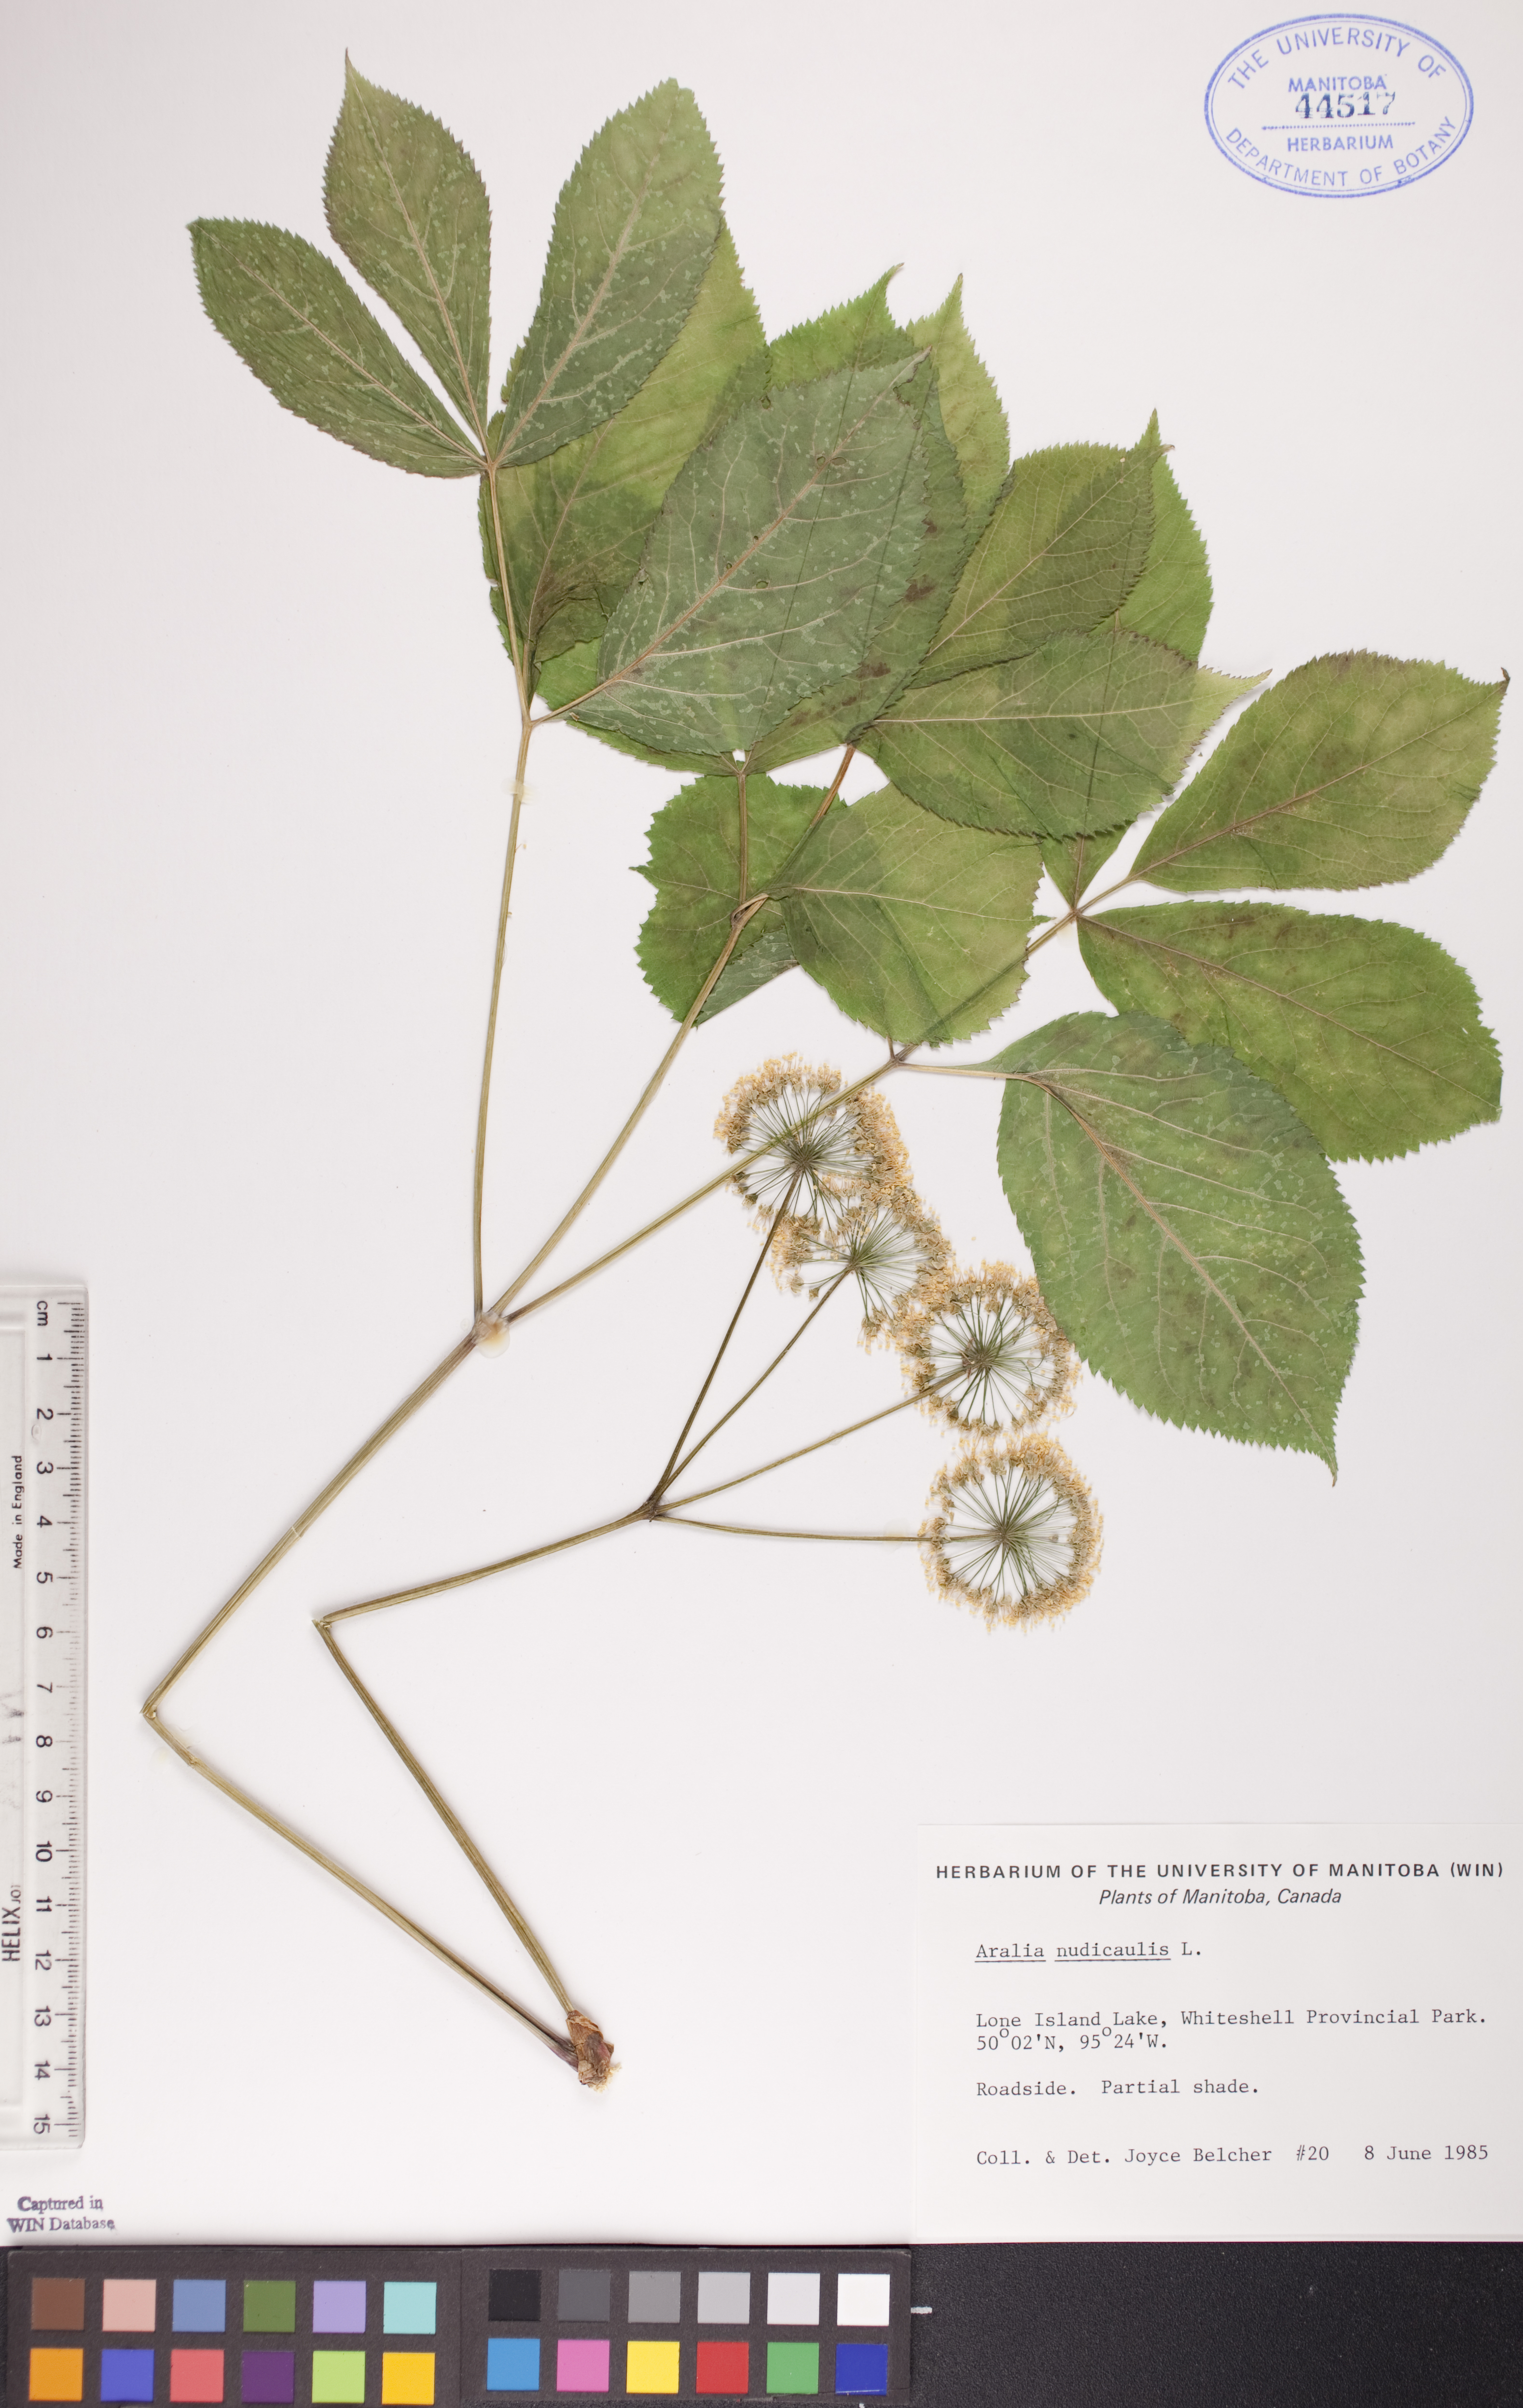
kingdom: Plantae
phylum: Tracheophyta
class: Magnoliopsida
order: Apiales
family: Araliaceae
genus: Aralia
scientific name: Aralia nudicaulis
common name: Wild sarsaparilla
